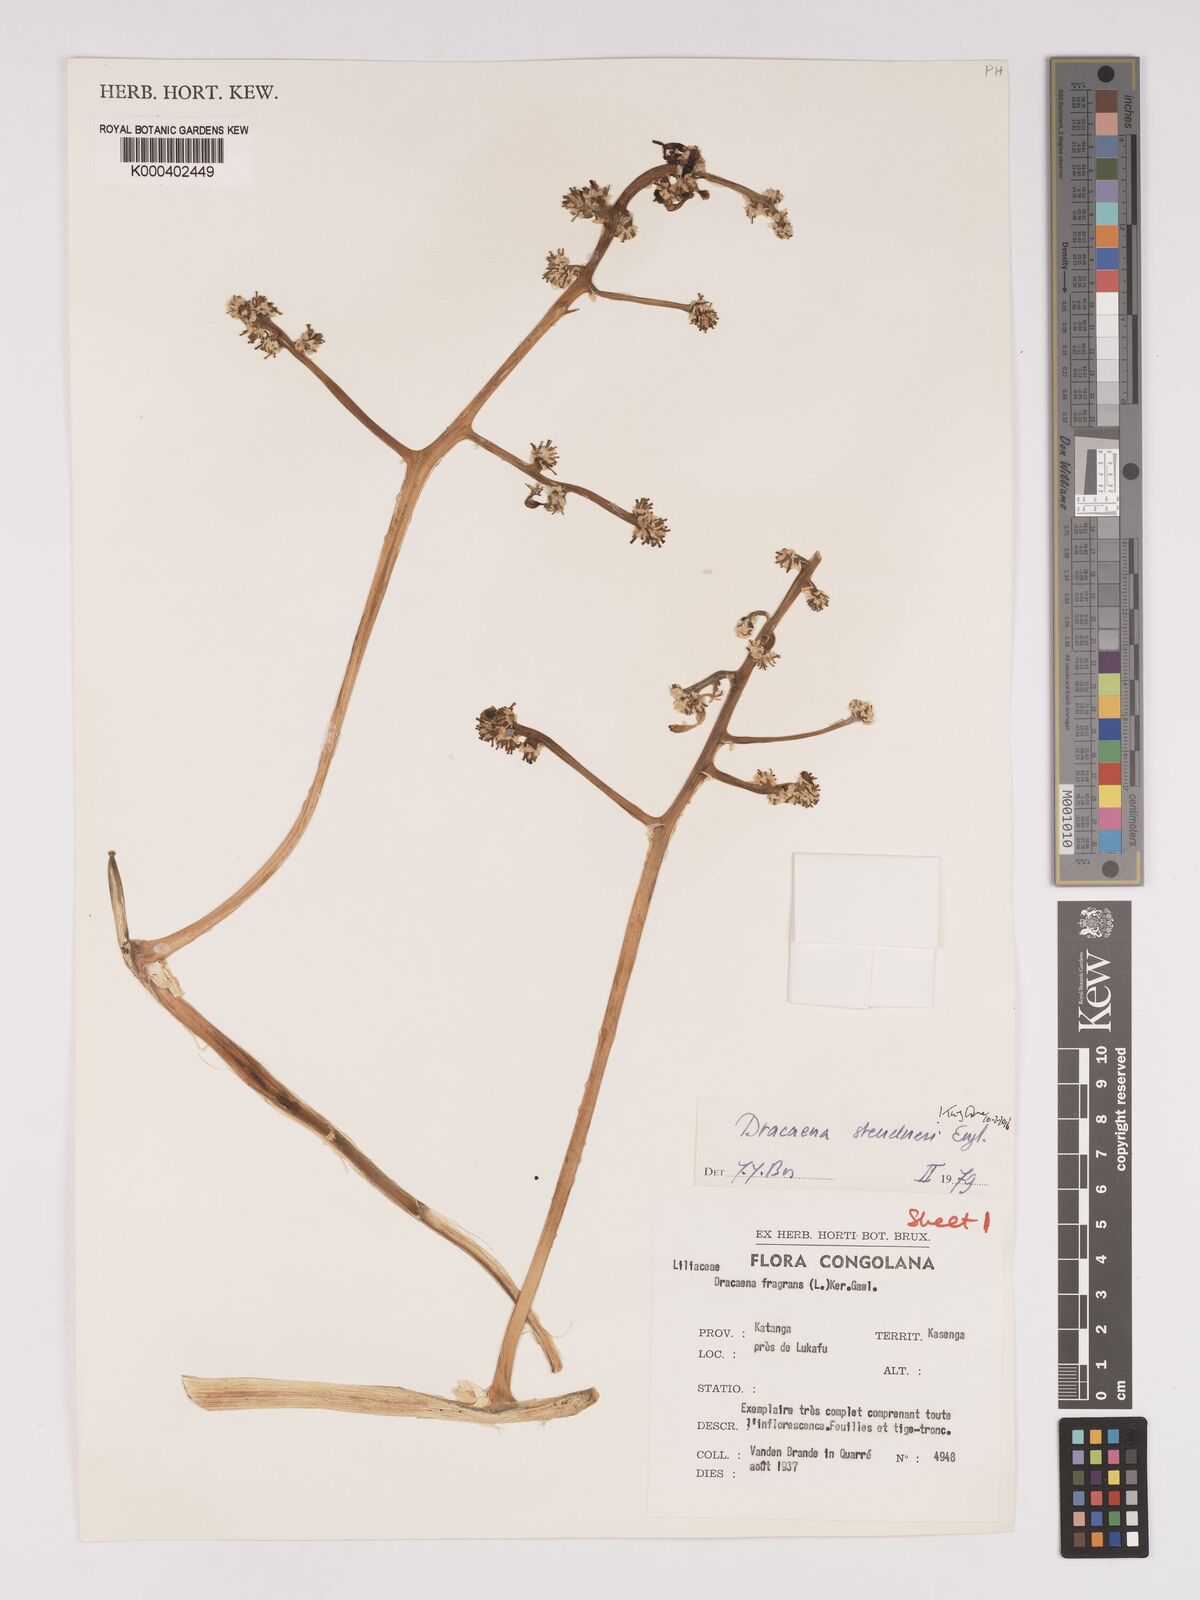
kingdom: Plantae
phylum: Tracheophyta
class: Liliopsida
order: Asparagales
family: Asparagaceae
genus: Dracaena
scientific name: Dracaena steudneri
